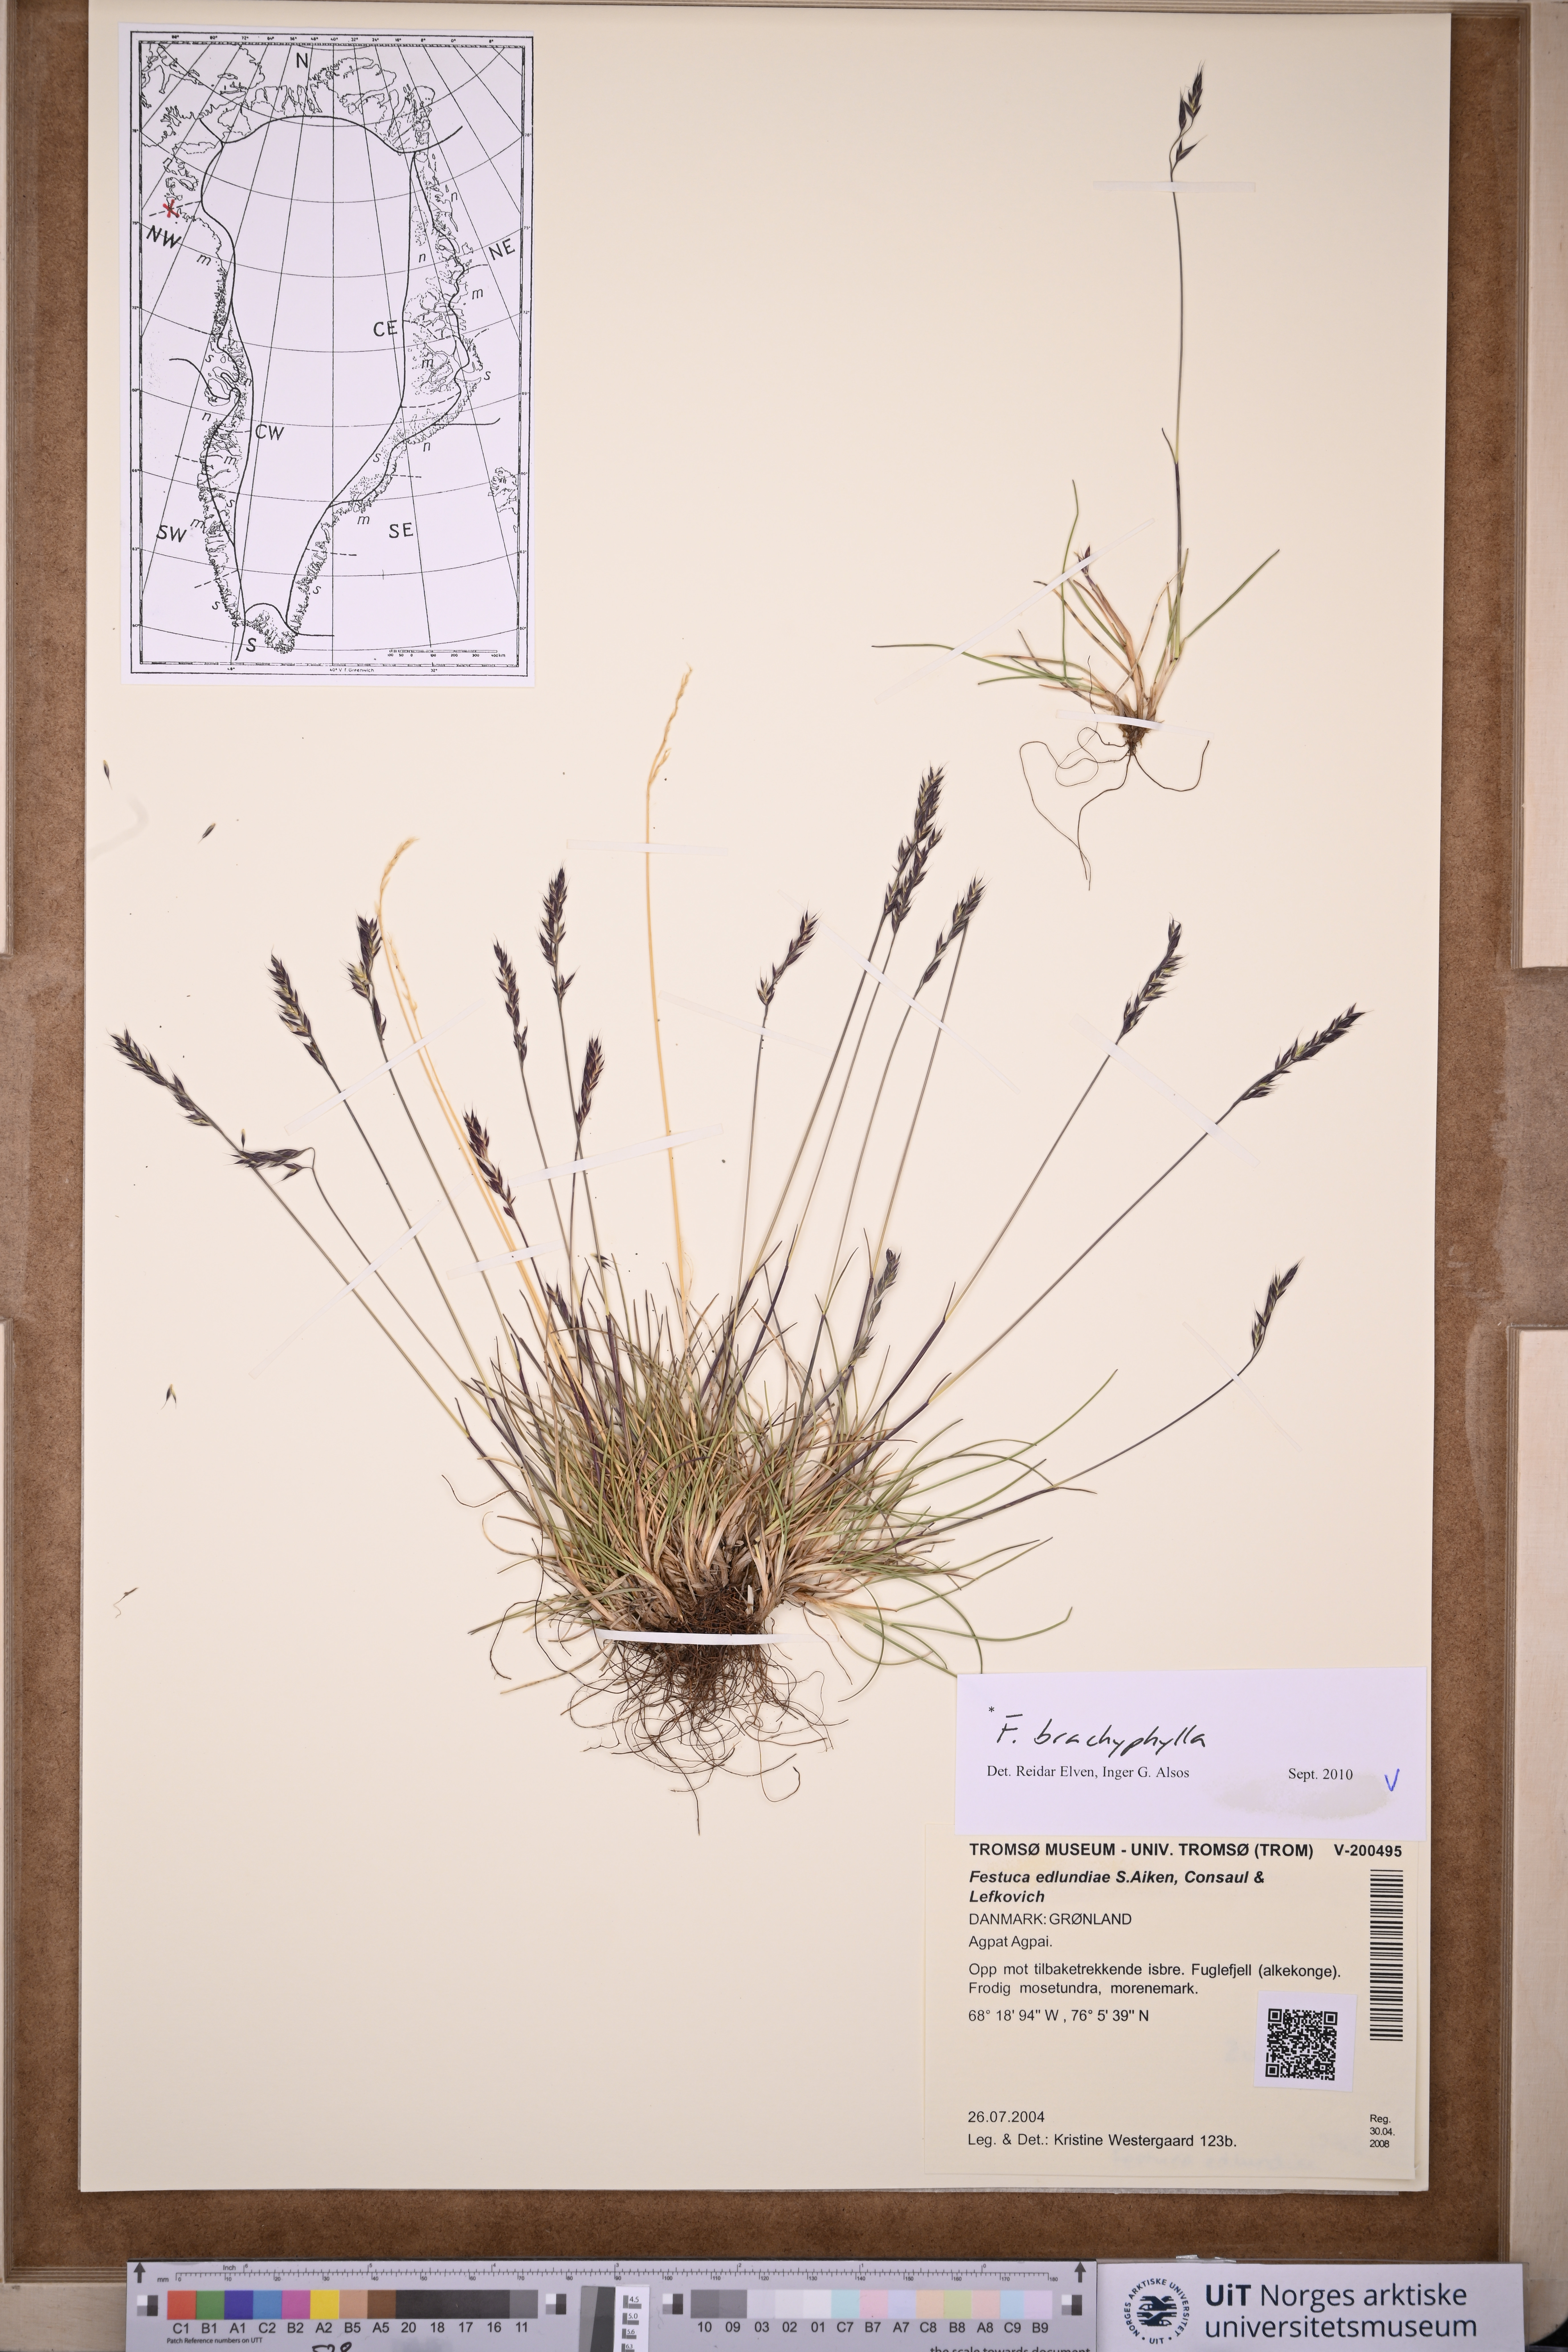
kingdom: Plantae
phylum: Tracheophyta
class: Liliopsida
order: Poales
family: Poaceae
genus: Festuca
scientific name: Festuca brachyphylla
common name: Alpine fescue
